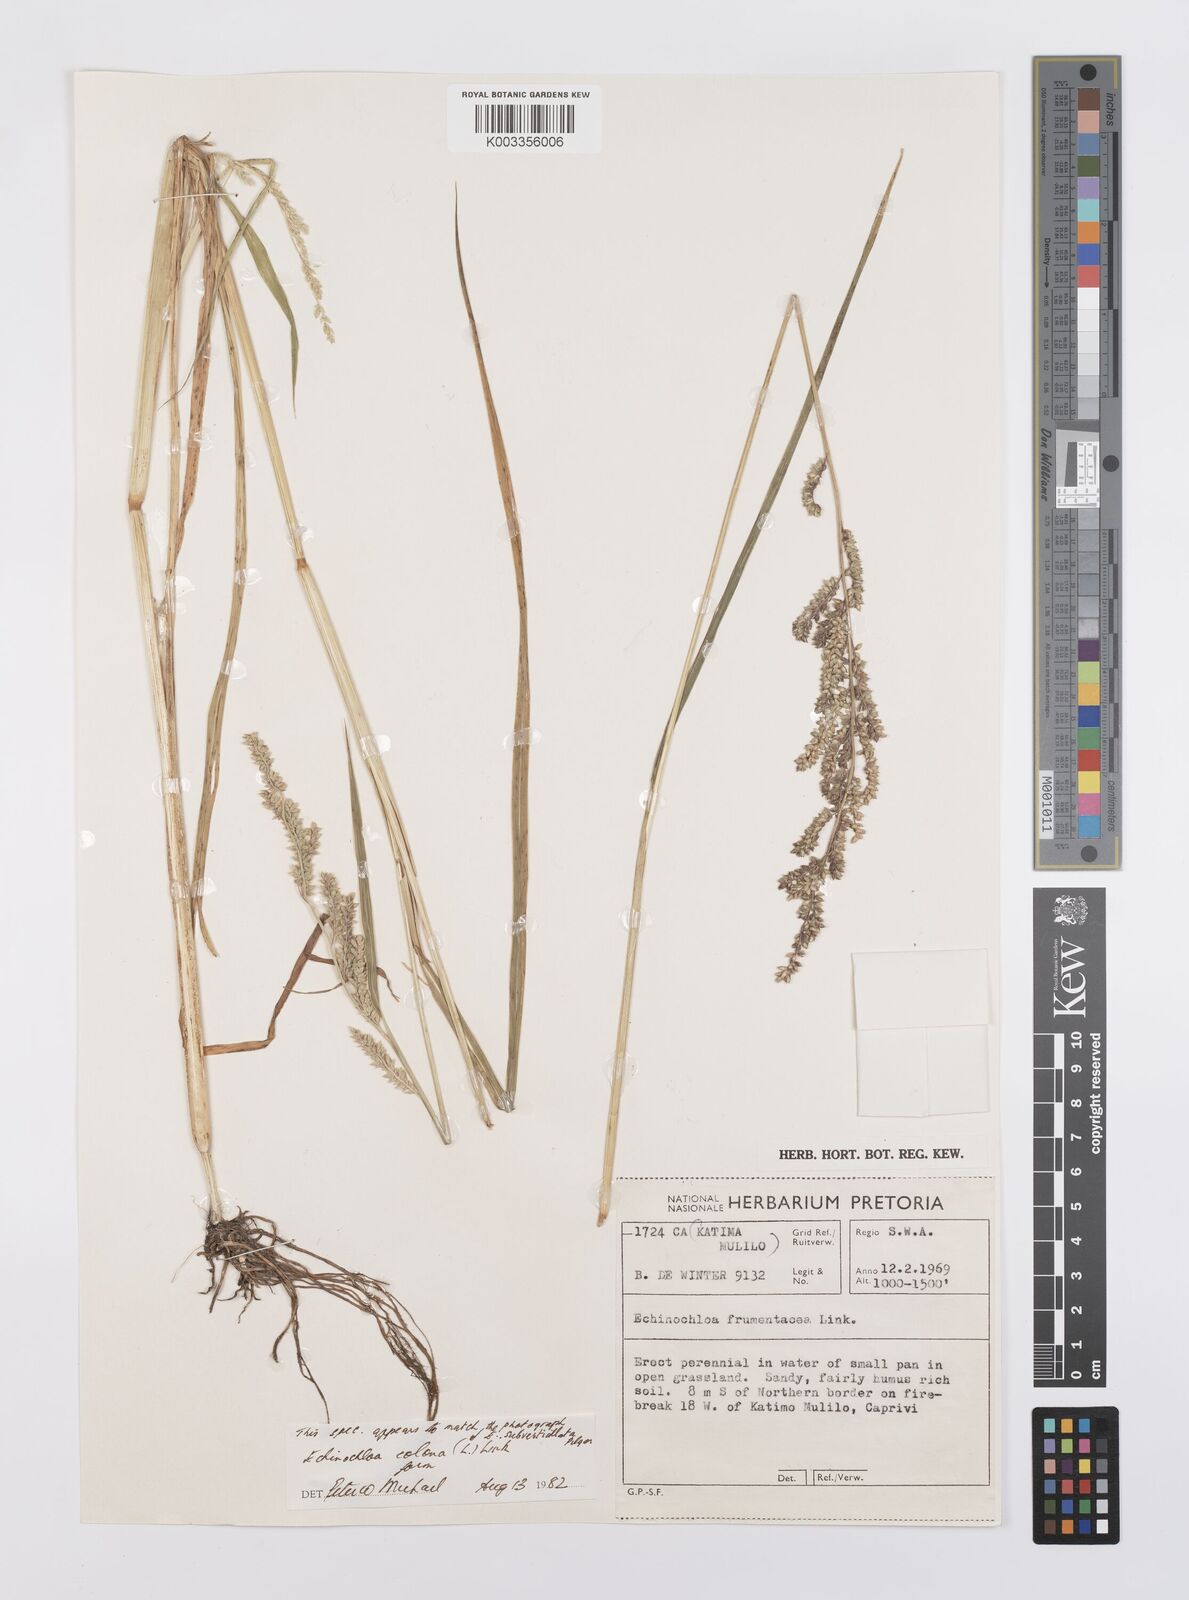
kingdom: Plantae
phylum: Tracheophyta
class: Liliopsida
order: Poales
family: Poaceae
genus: Echinochloa
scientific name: Echinochloa colonum
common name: Jungle rice
